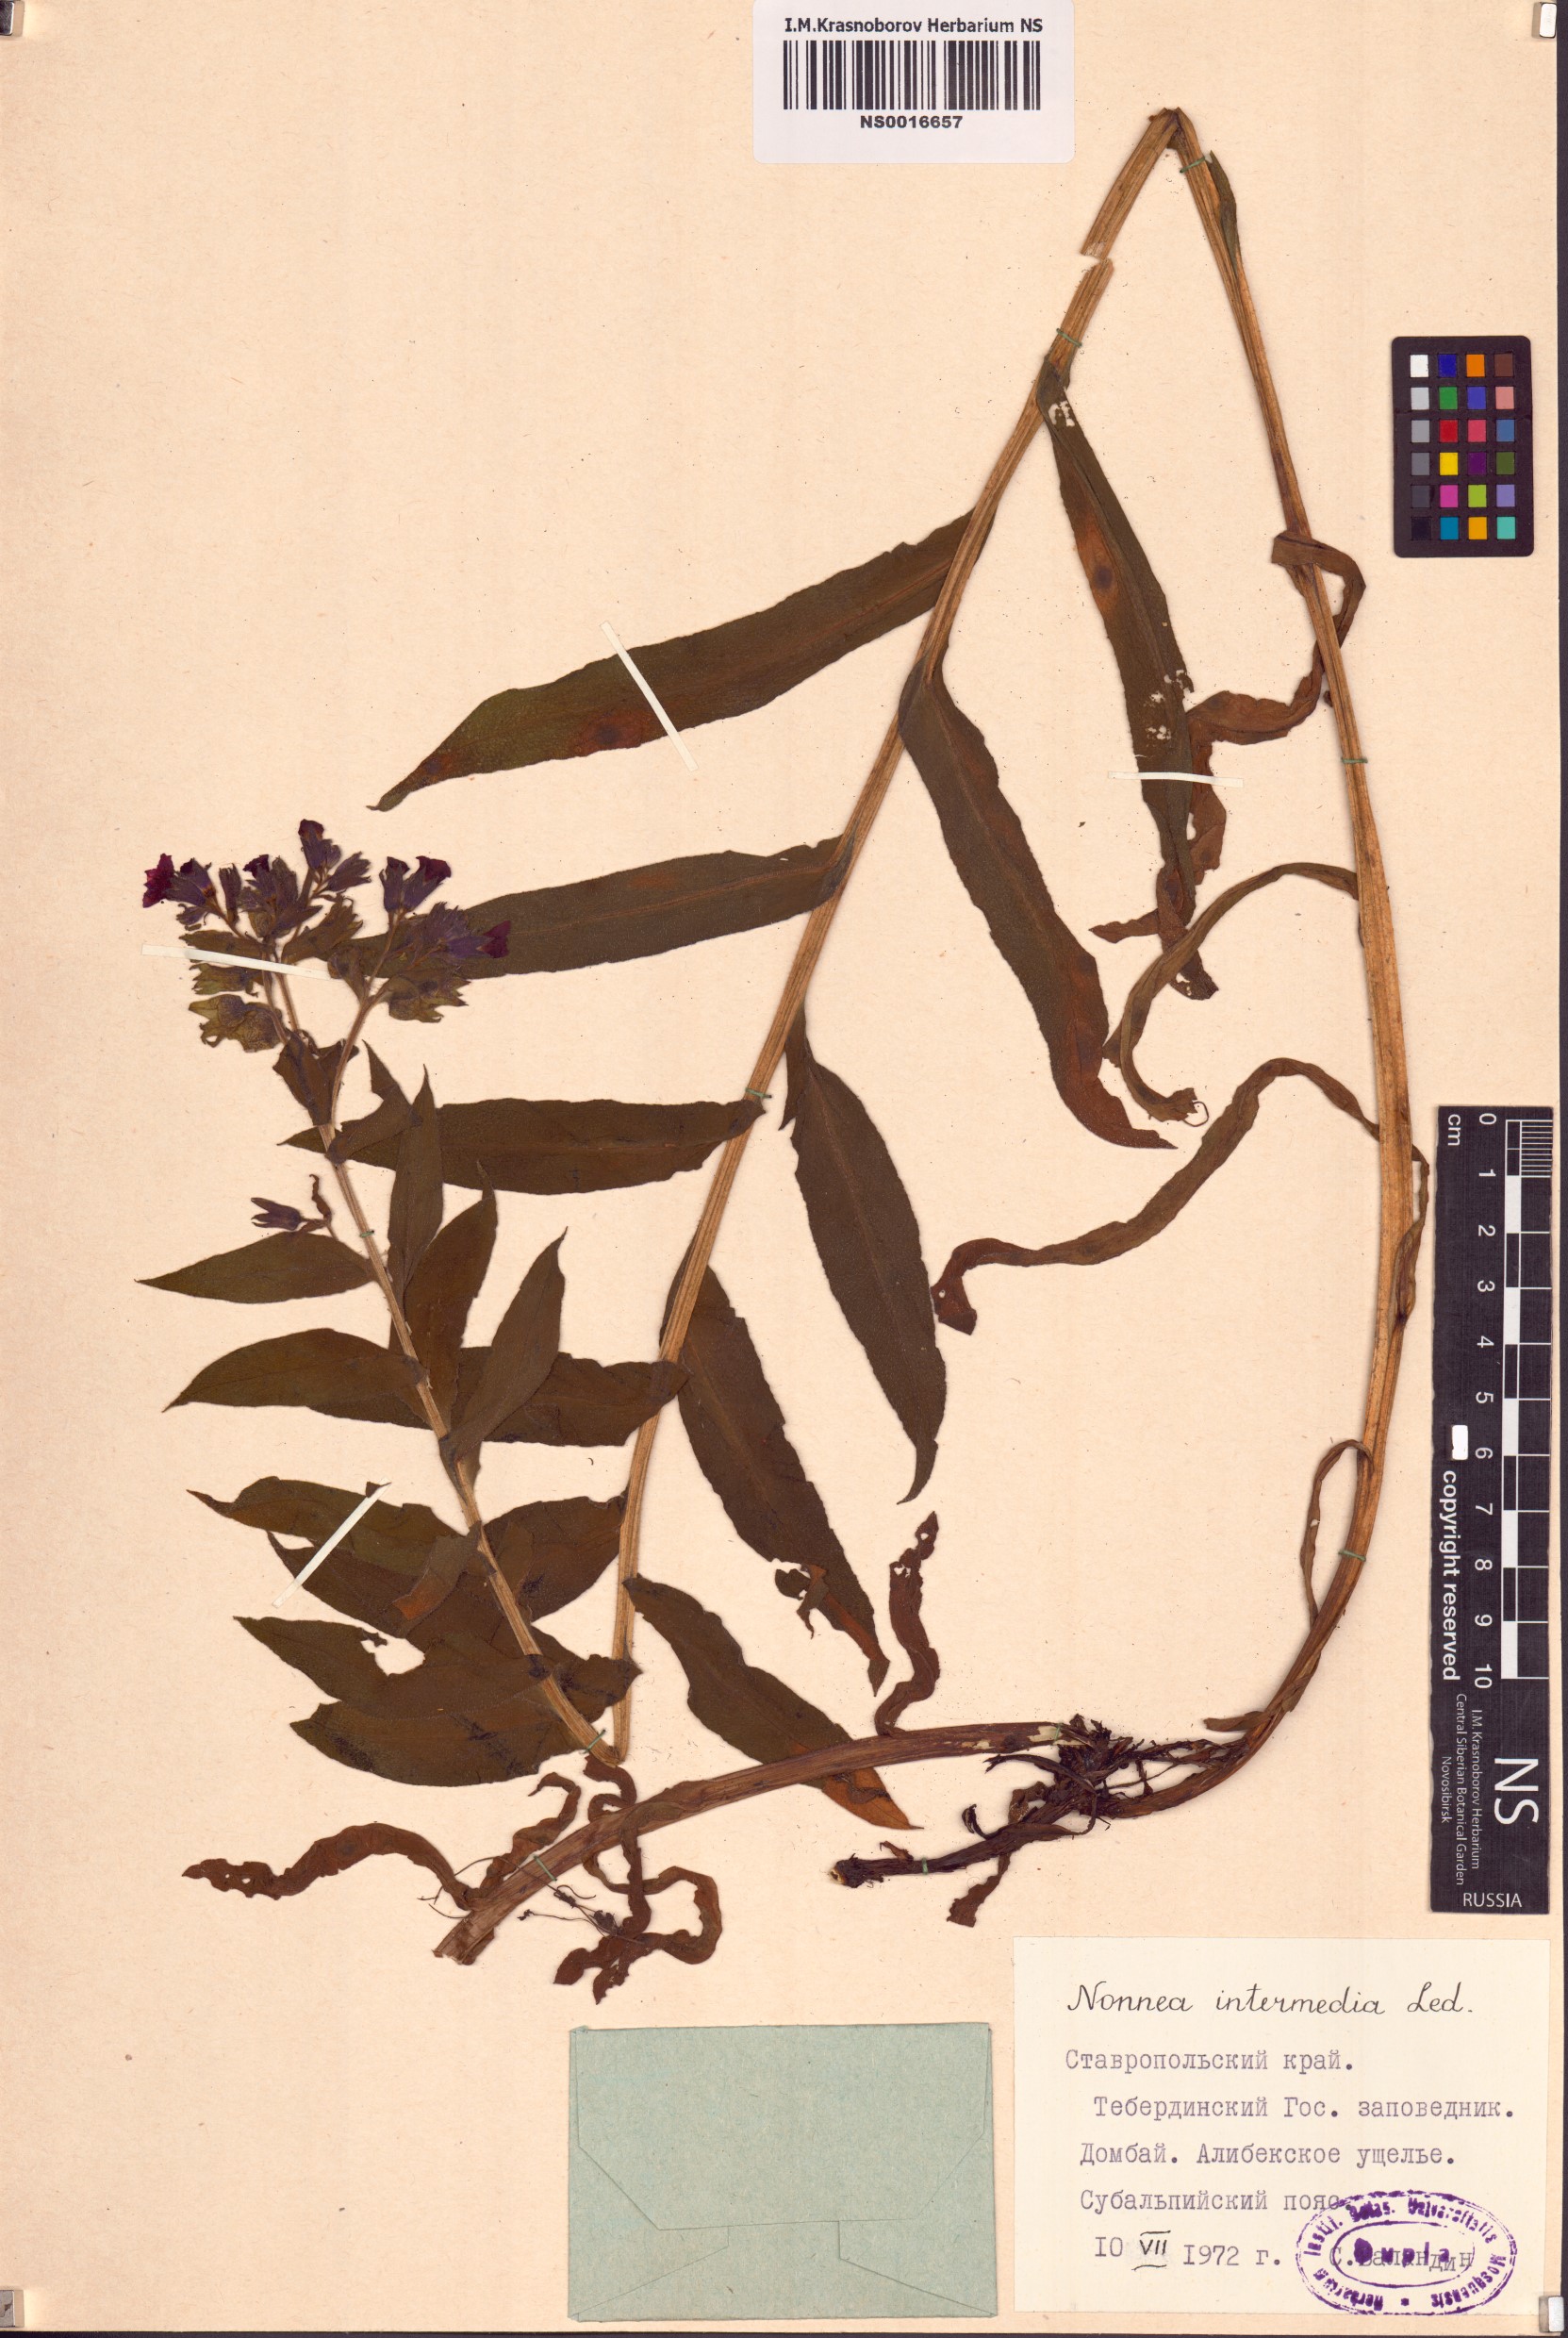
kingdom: Plantae
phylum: Tracheophyta
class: Magnoliopsida
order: Boraginales
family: Boraginaceae
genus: Nonea
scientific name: Nonea intermedia
